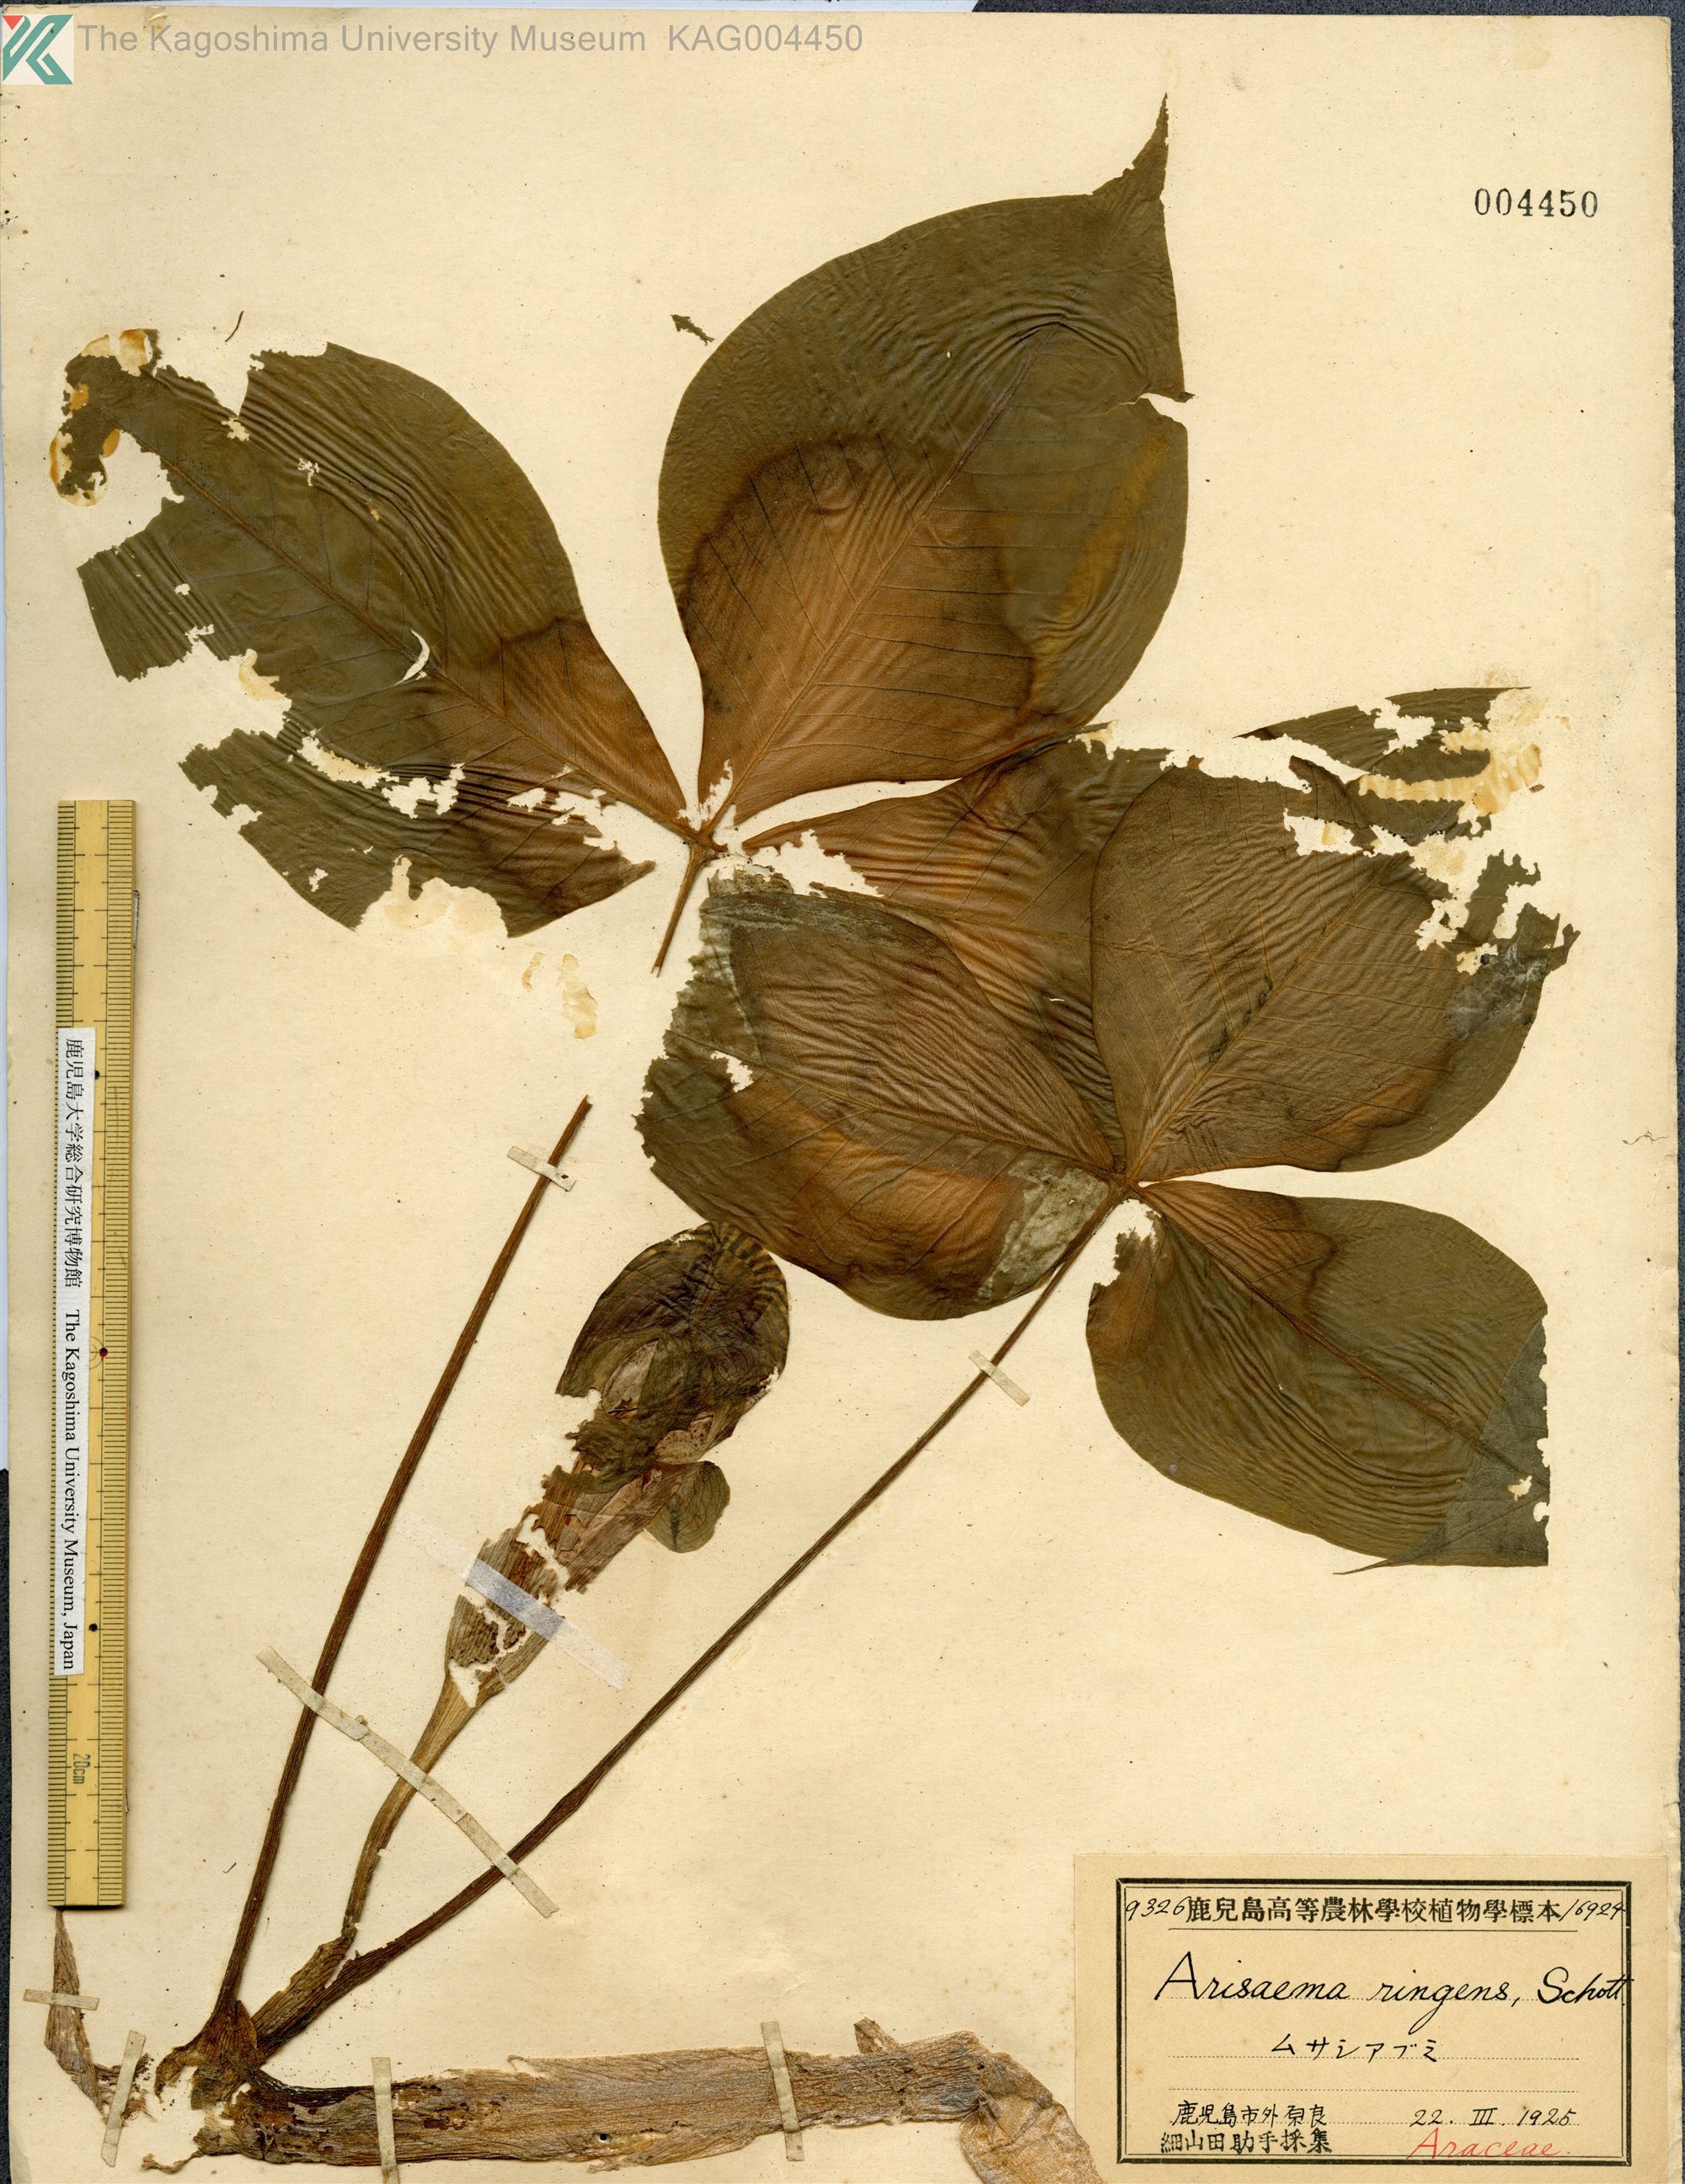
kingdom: Plantae
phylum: Tracheophyta
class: Liliopsida
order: Alismatales
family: Araceae
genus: Arisaema
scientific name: Arisaema ringens
